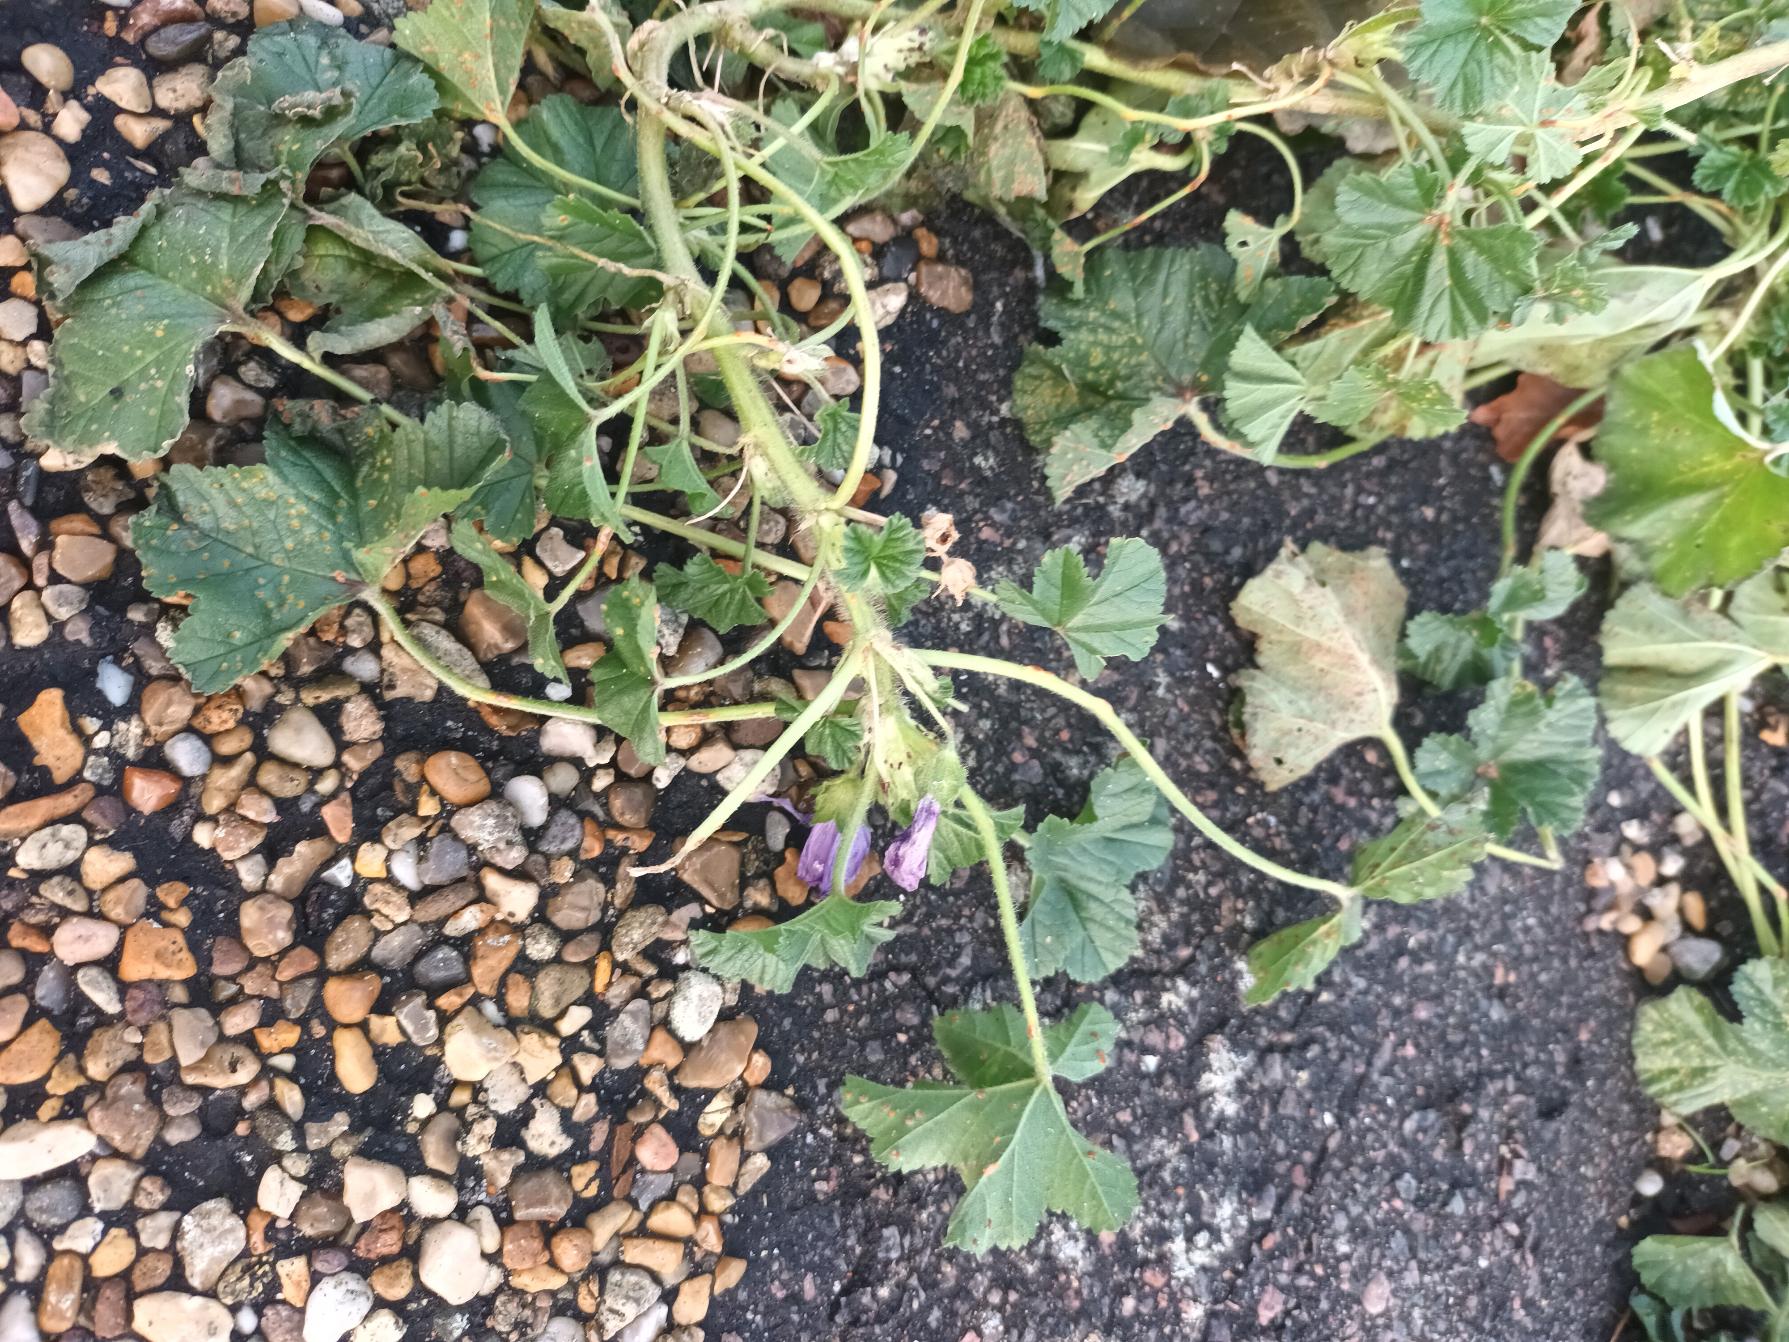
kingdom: Plantae
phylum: Tracheophyta
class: Magnoliopsida
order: Malvales
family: Malvaceae
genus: Malva
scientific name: Malva sylvestris
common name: Almindelig katost
